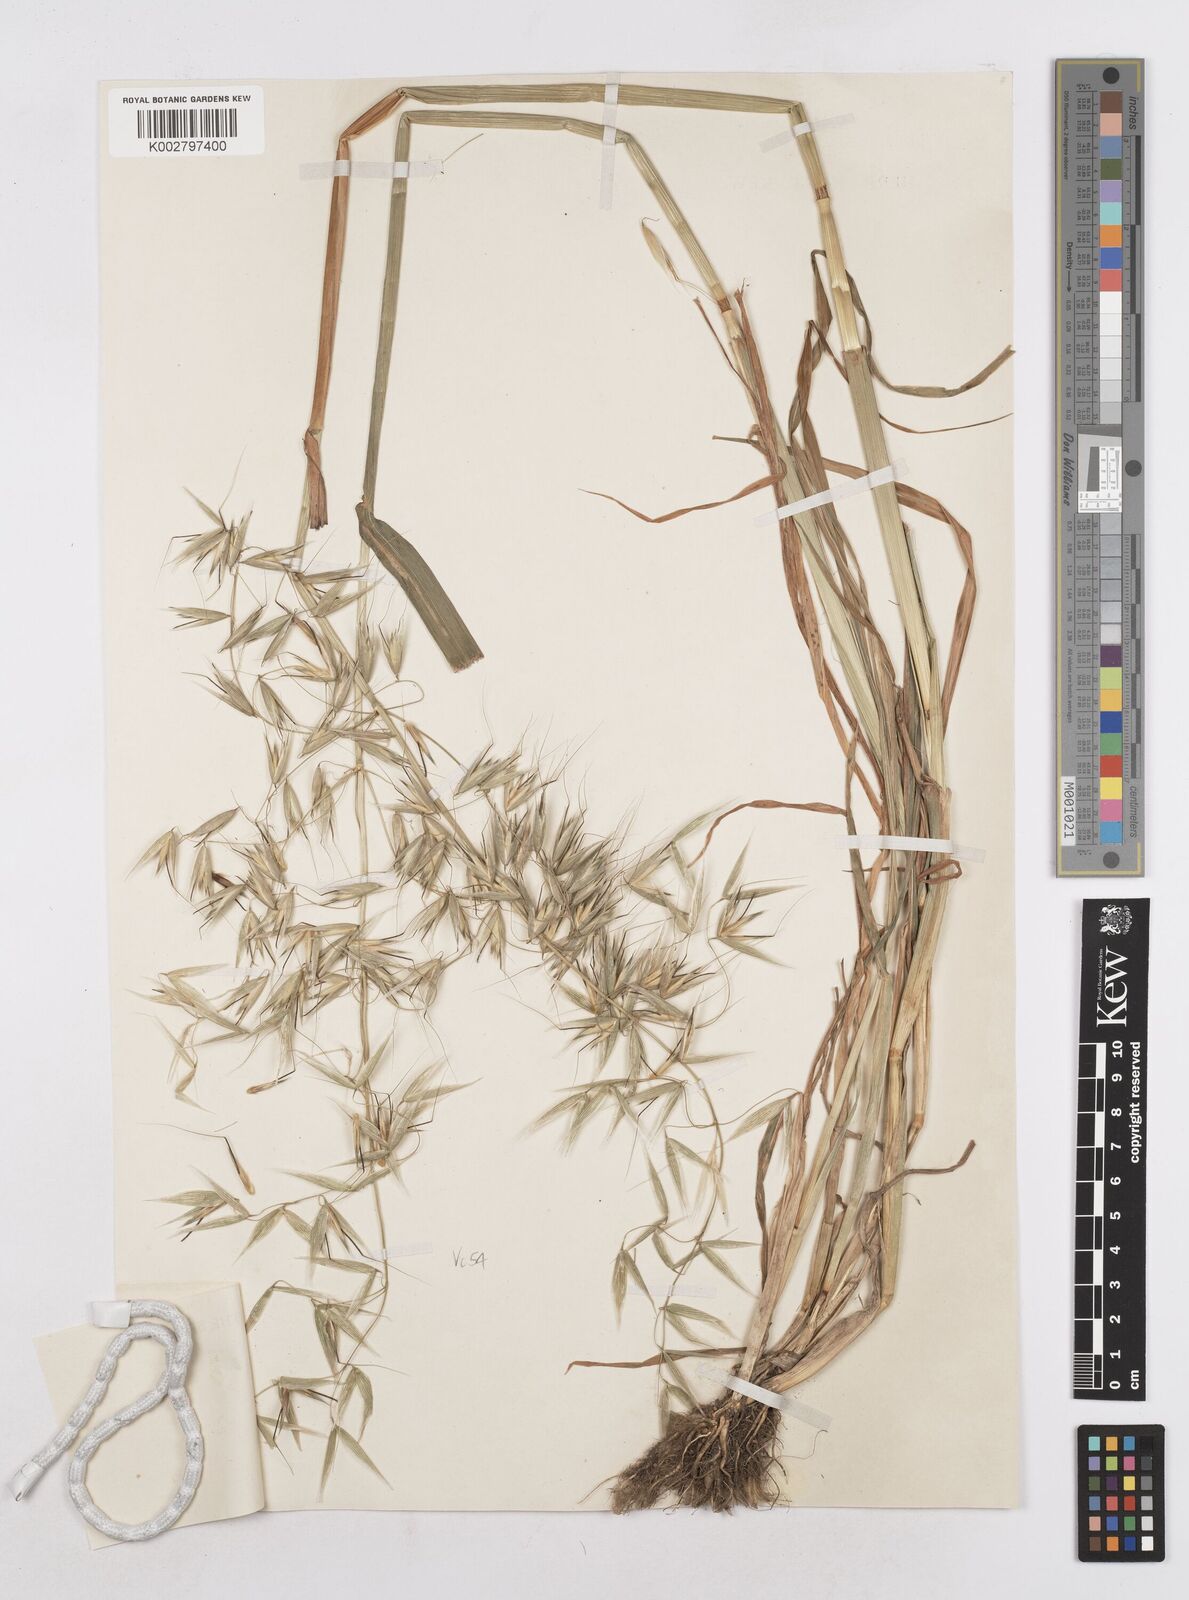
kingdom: Plantae
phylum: Tracheophyta
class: Liliopsida
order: Poales
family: Poaceae
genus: Avena
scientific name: Avena fatua
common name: Wild oat
